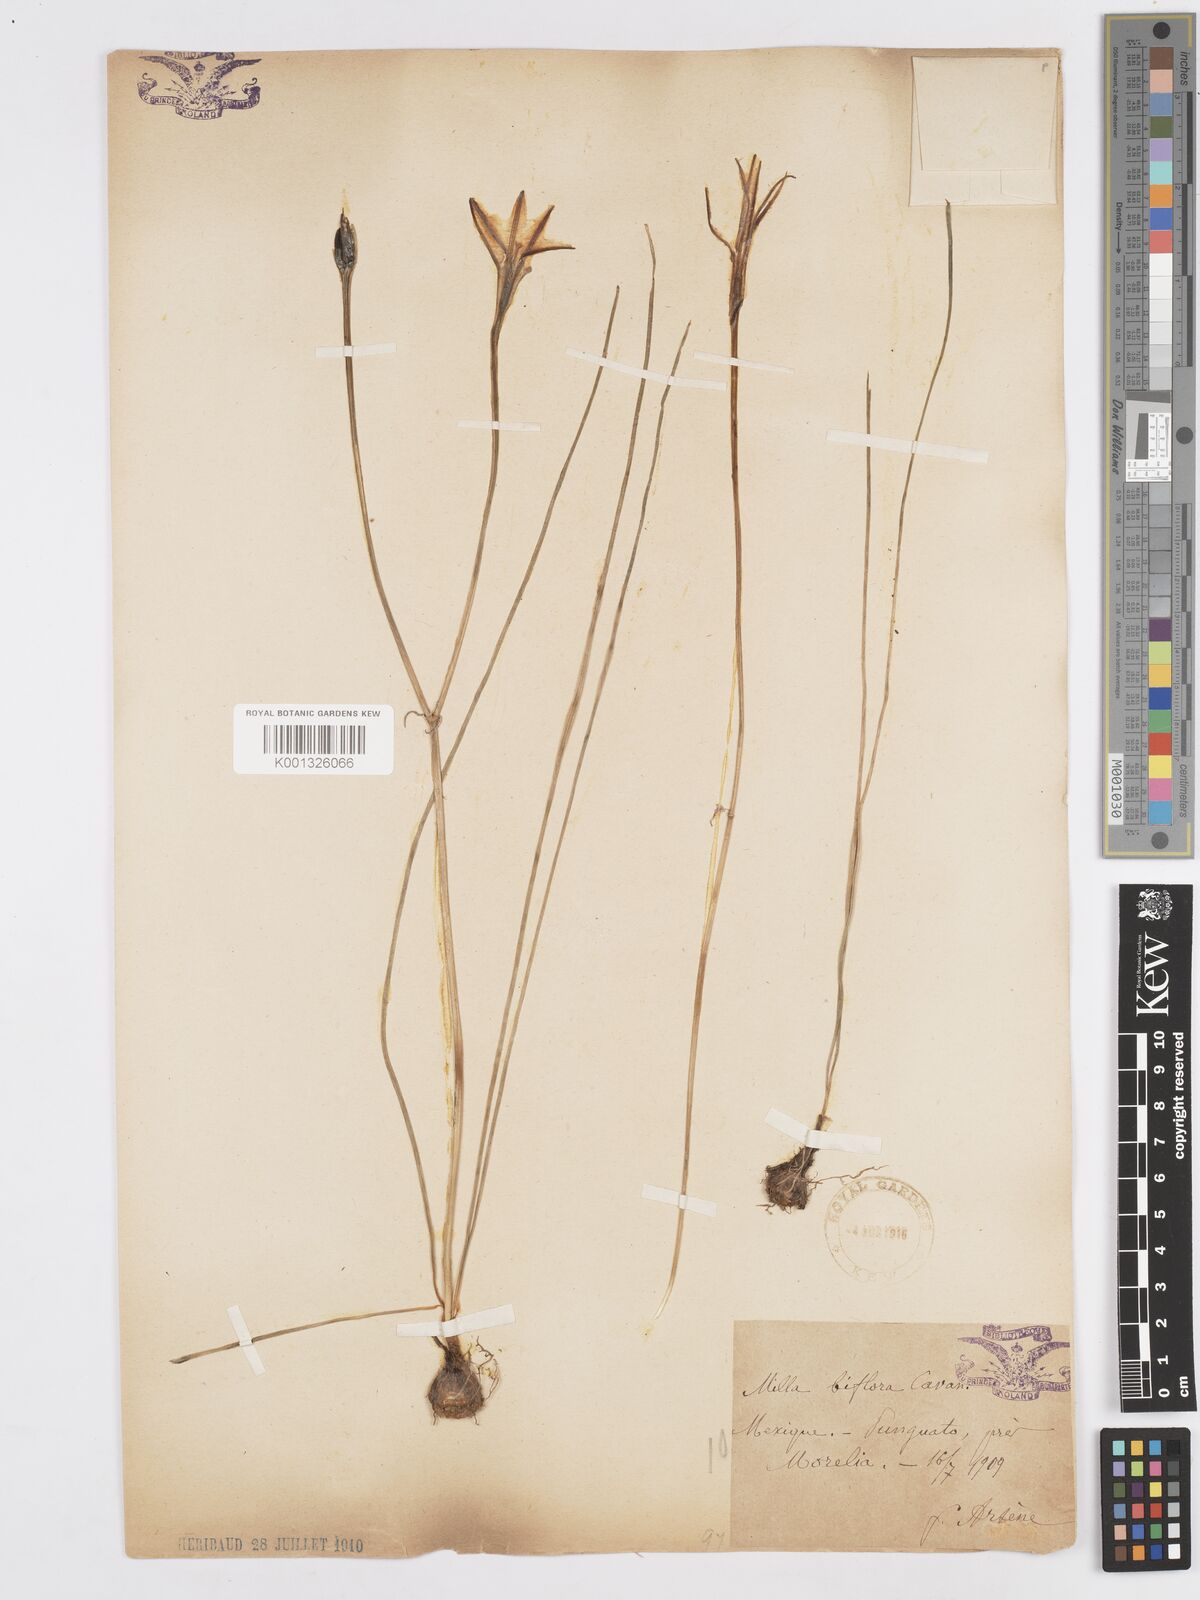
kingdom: Plantae
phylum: Tracheophyta
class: Liliopsida
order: Asparagales
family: Asparagaceae
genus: Milla
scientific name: Milla biflora
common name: Mexican-star
